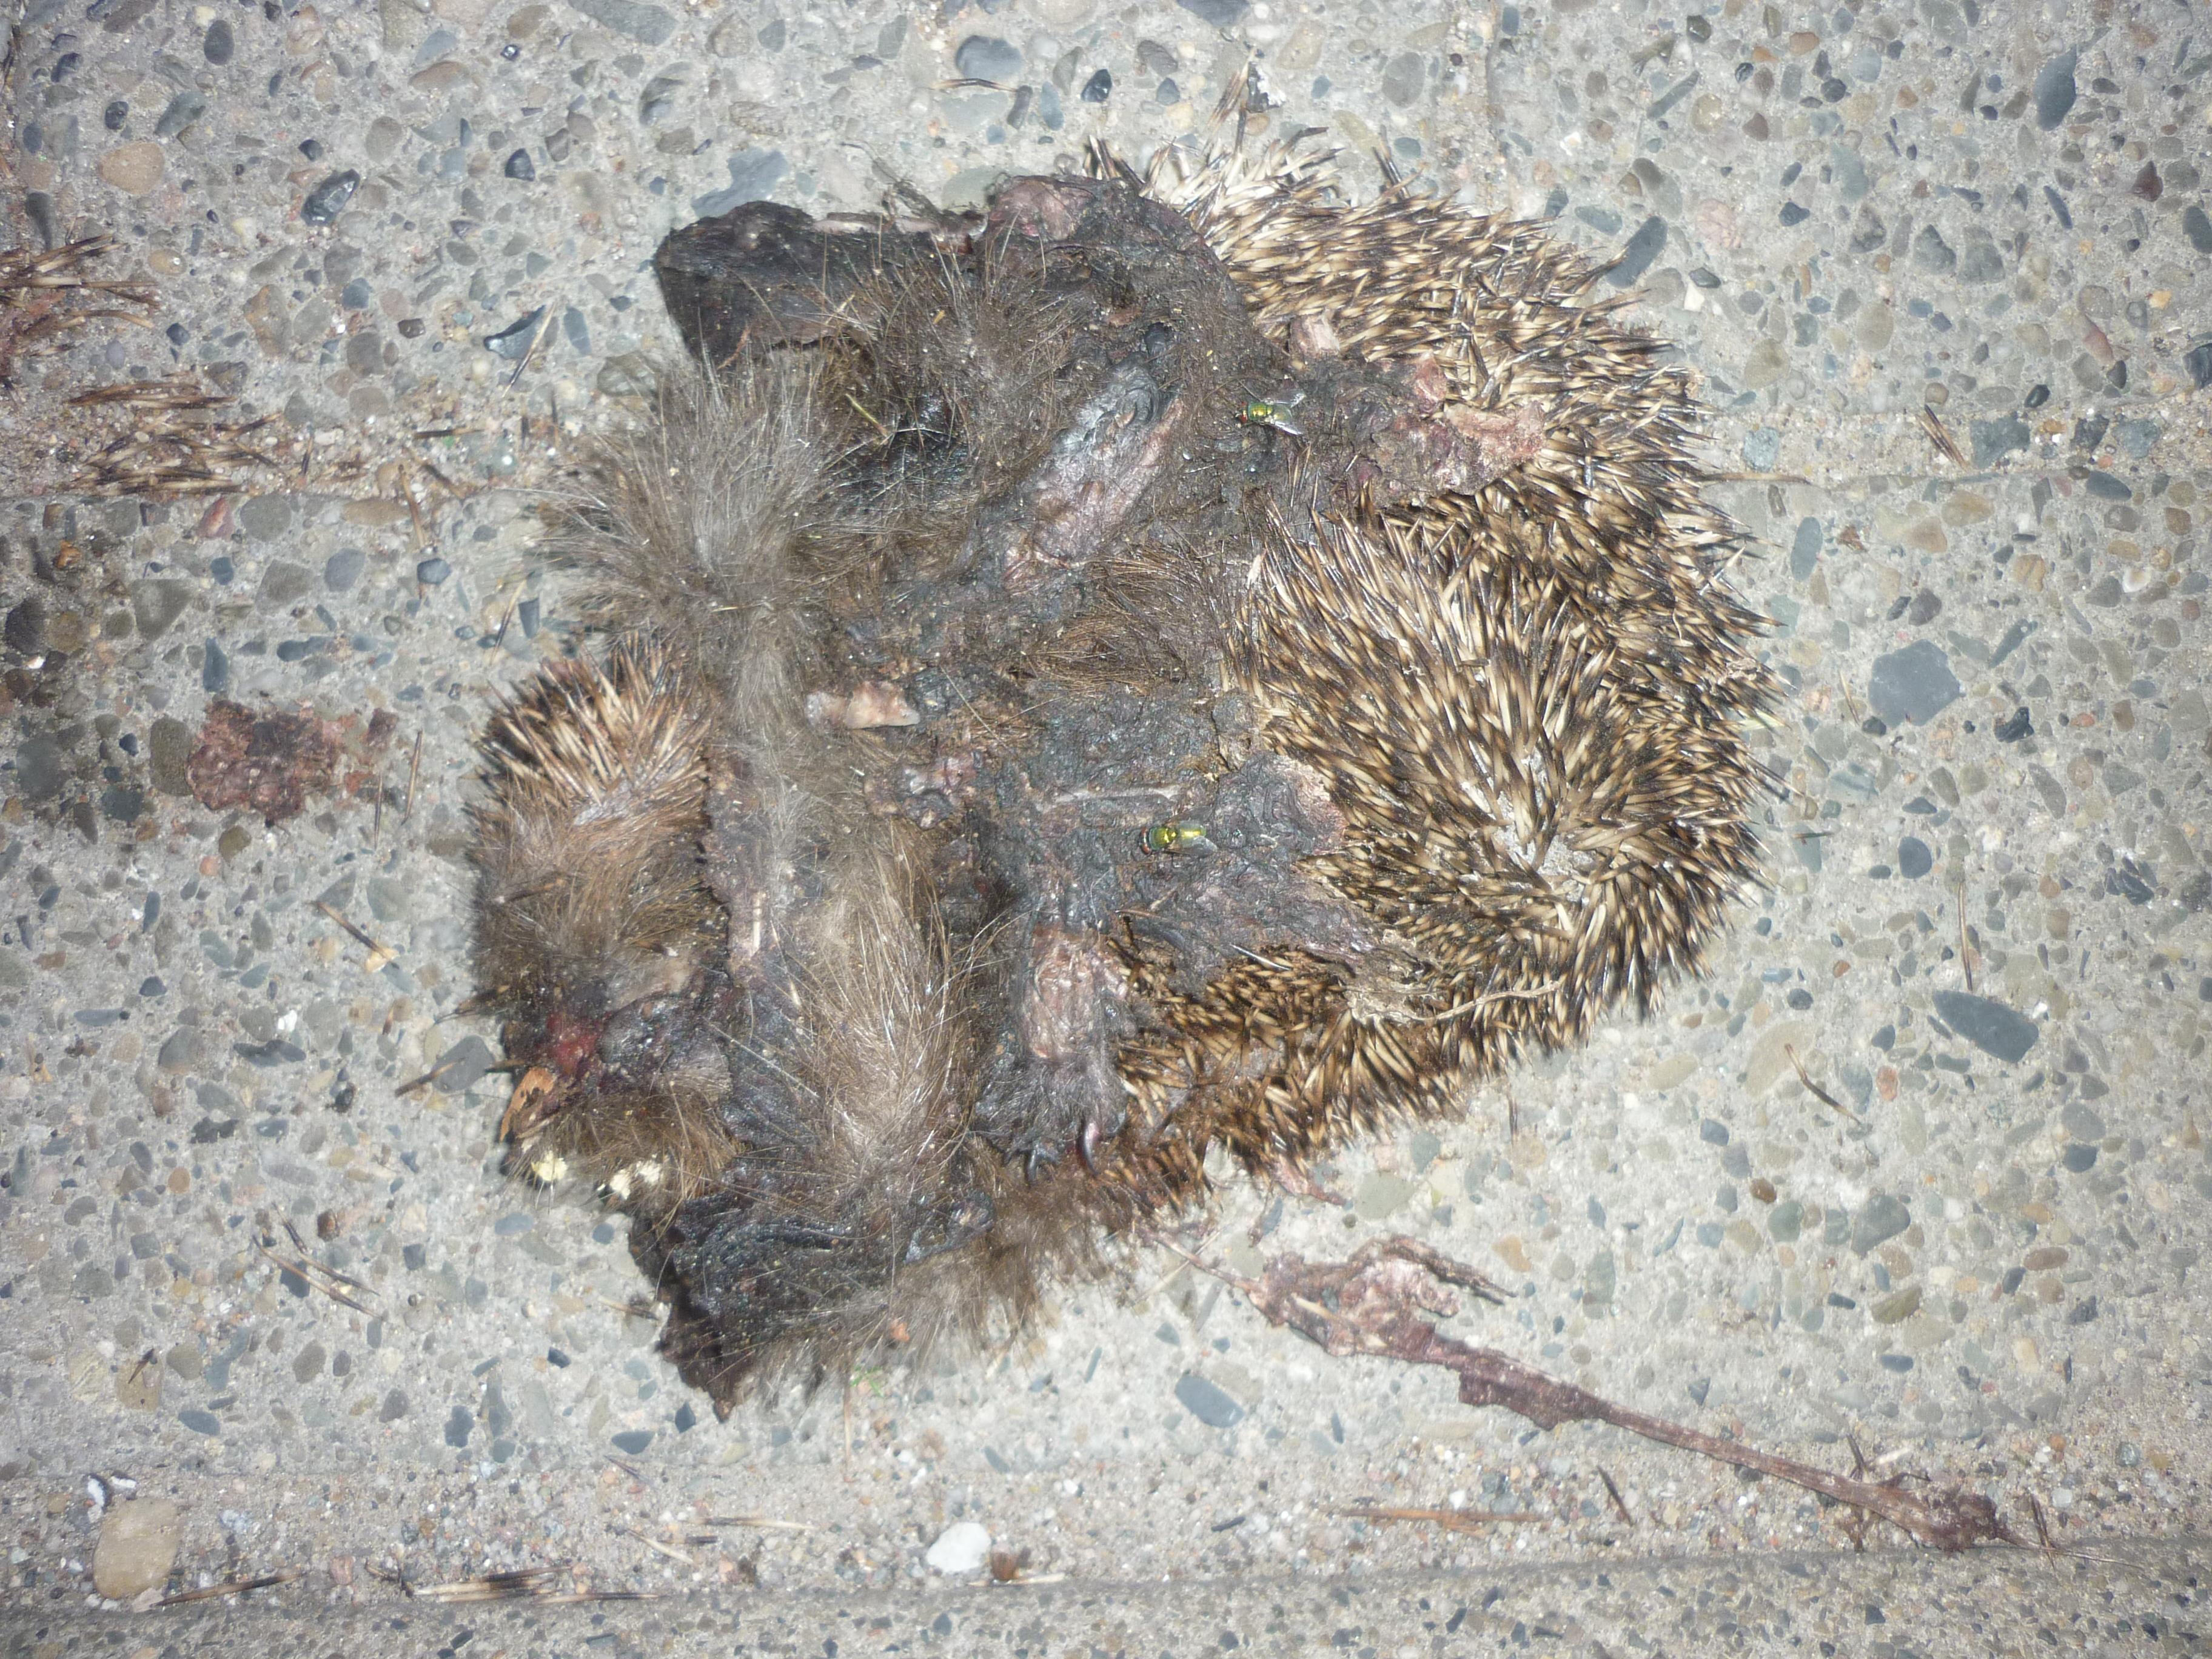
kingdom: Animalia
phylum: Chordata
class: Mammalia
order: Erinaceomorpha
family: Erinaceidae
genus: Erinaceus
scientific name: Erinaceus
